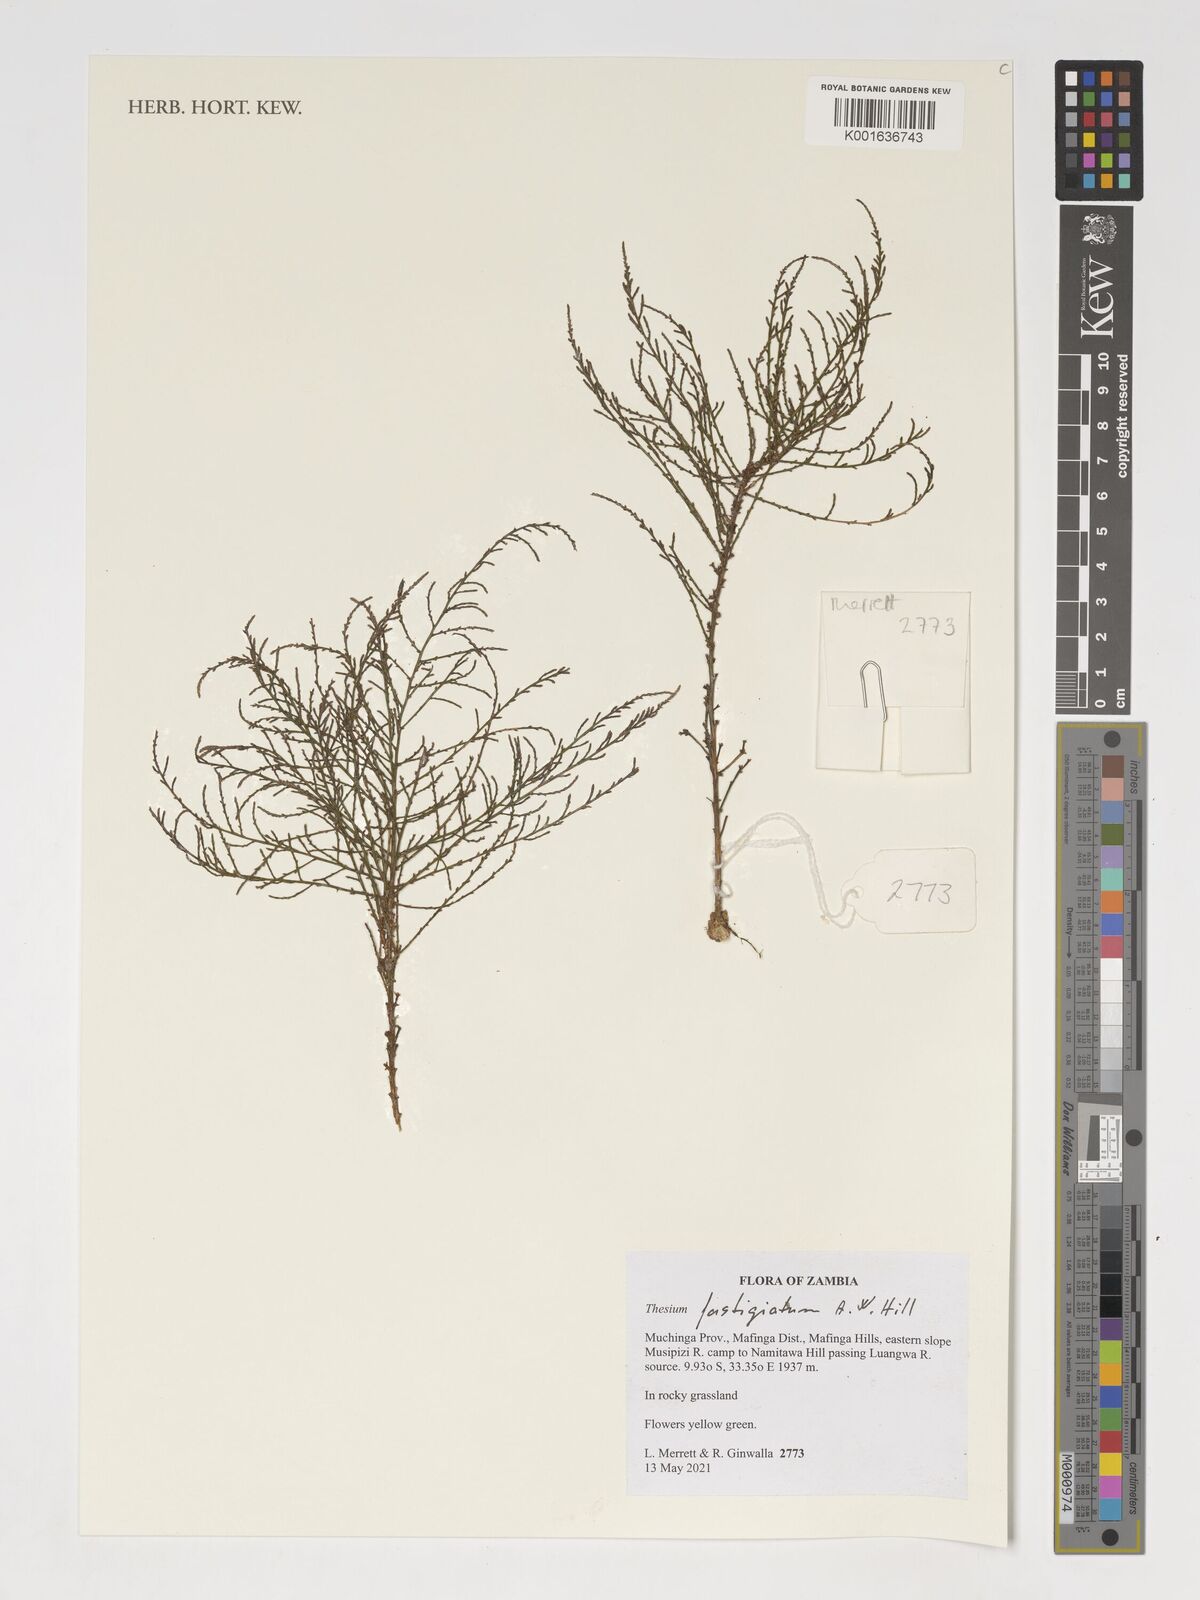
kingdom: Plantae
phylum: Tracheophyta
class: Magnoliopsida
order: Santalales
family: Thesiaceae
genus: Thesium
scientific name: Thesium fastigiatum
